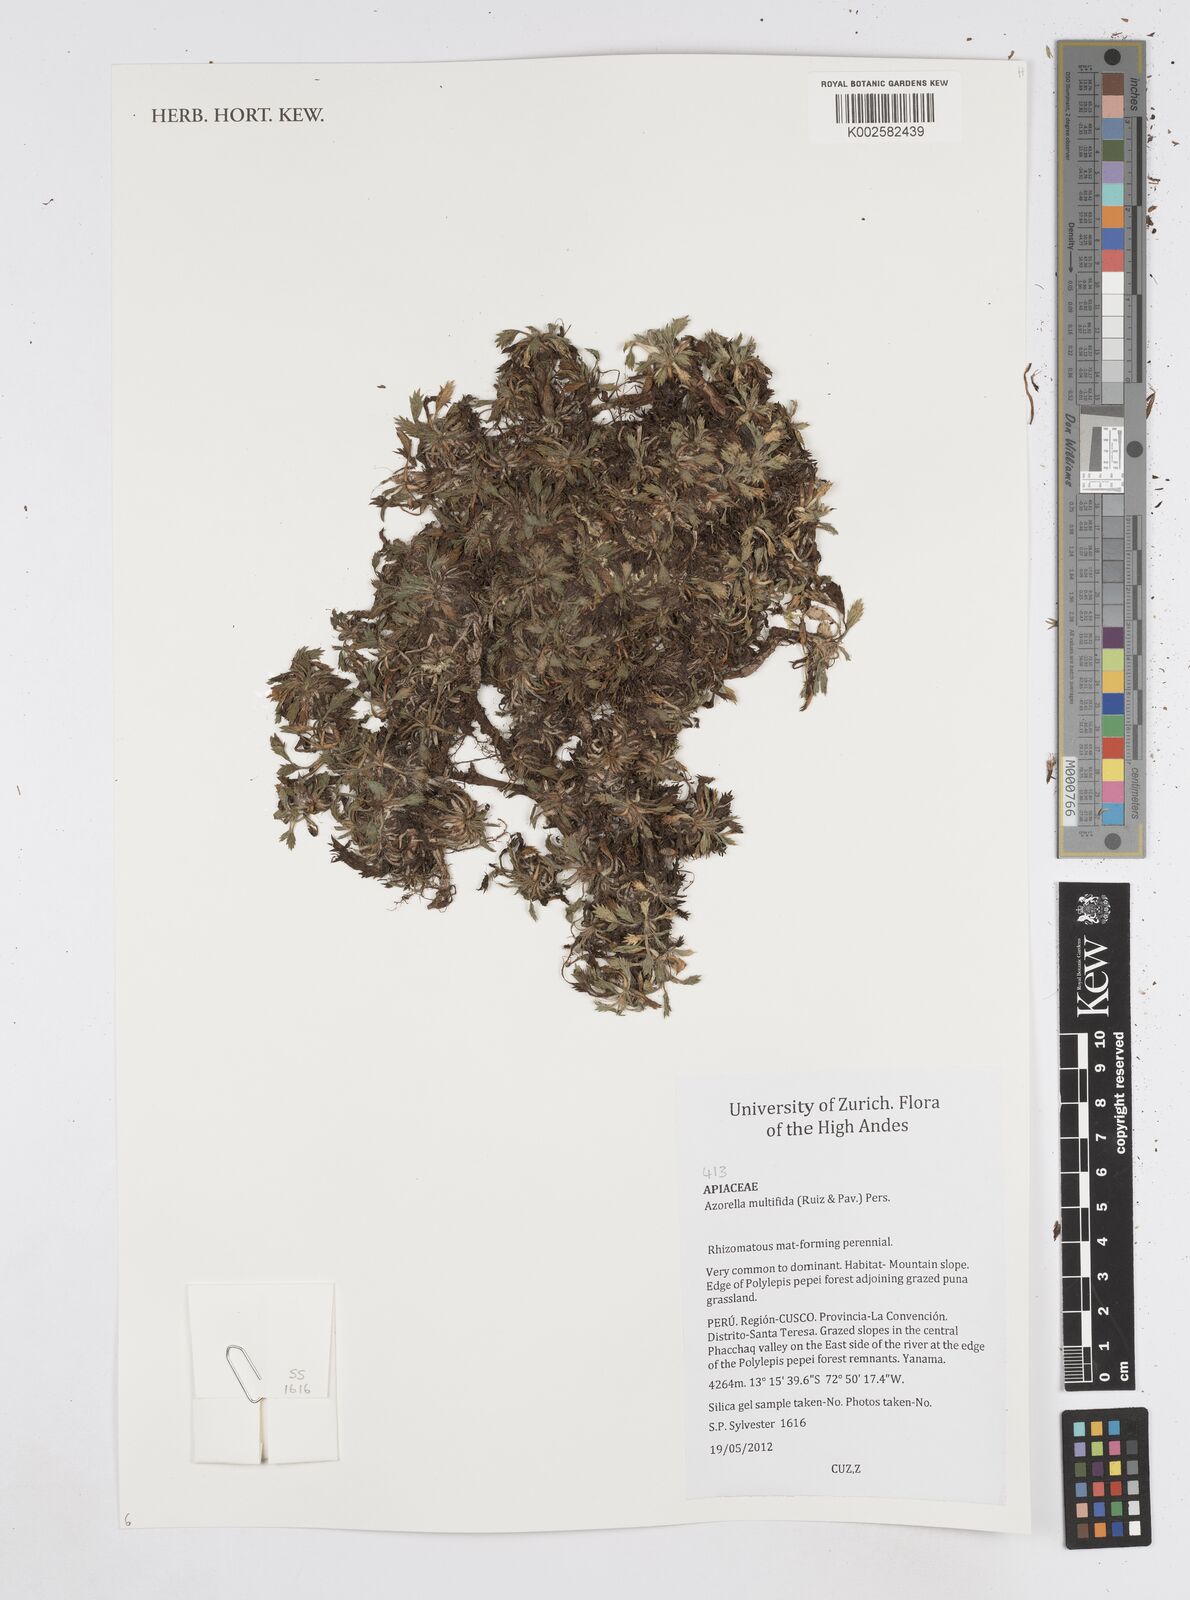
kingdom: Plantae
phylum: Tracheophyta
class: Magnoliopsida
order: Apiales
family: Apiaceae
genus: Azorella
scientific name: Azorella multifida
